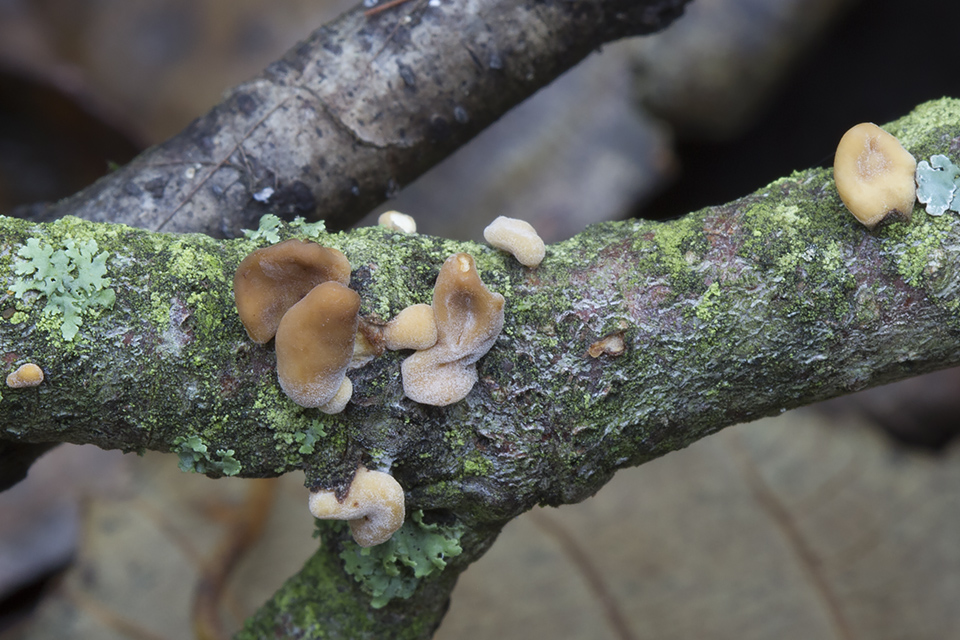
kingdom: Fungi
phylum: Basidiomycota
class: Agaricomycetes
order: Agaricales
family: Typhulaceae
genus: Typhula
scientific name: Typhula contorta
